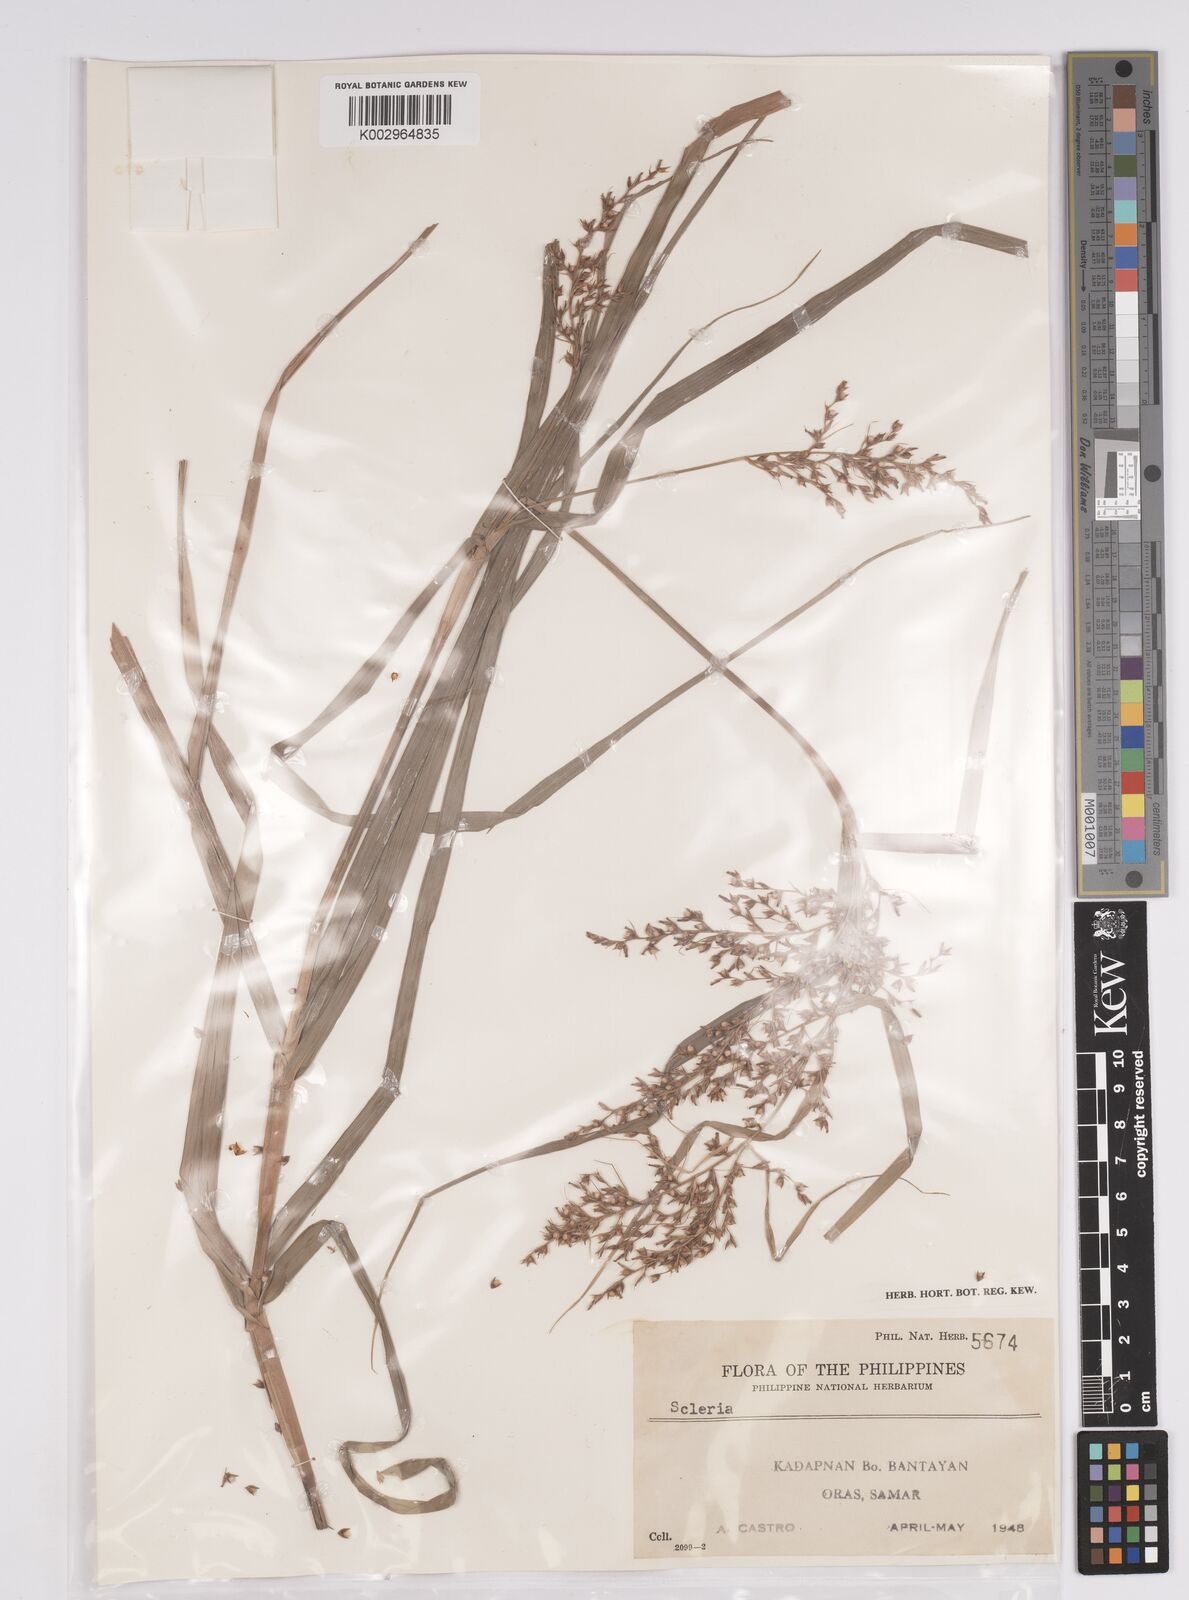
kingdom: Plantae
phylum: Tracheophyta
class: Liliopsida
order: Poales
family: Cyperaceae
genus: Scleria
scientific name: Scleria
